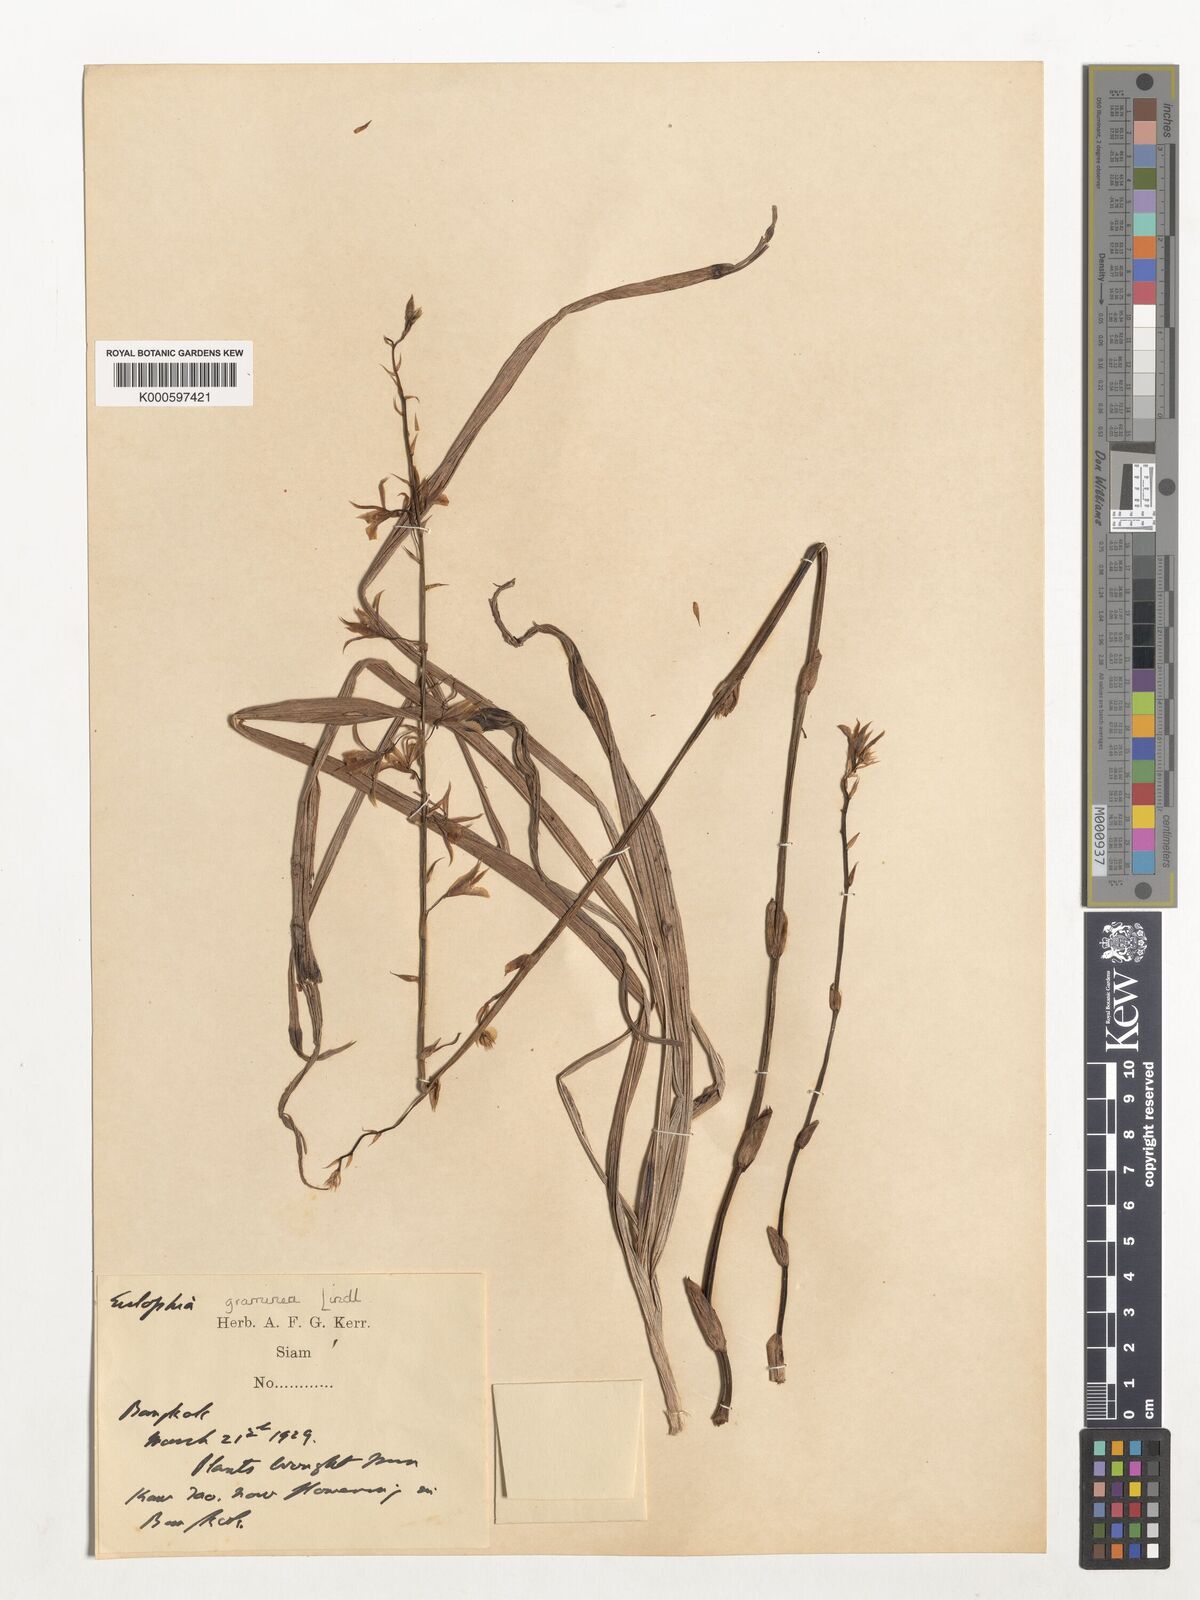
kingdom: Plantae
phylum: Tracheophyta
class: Liliopsida
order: Asparagales
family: Orchidaceae
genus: Eulophia
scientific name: Eulophia graminea
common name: Orchid
